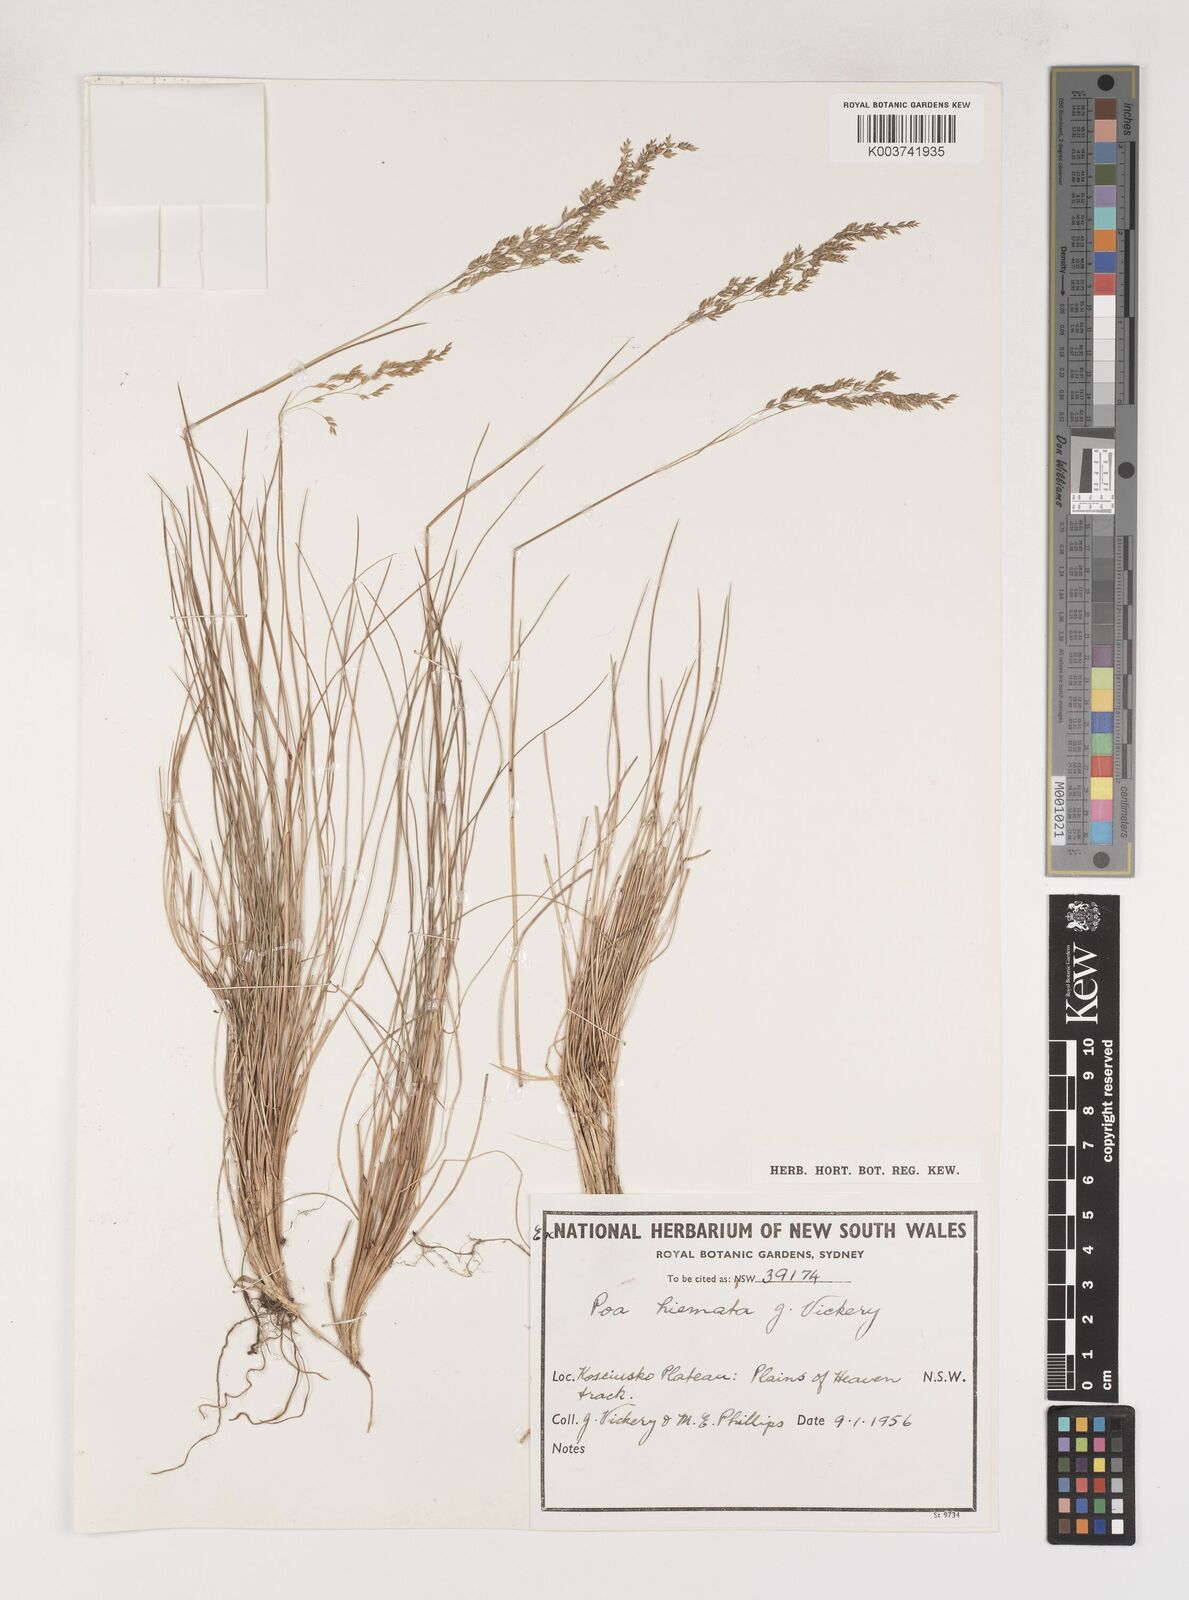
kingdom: Plantae
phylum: Tracheophyta
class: Liliopsida
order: Poales
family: Poaceae
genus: Poa
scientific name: Poa hiemata
